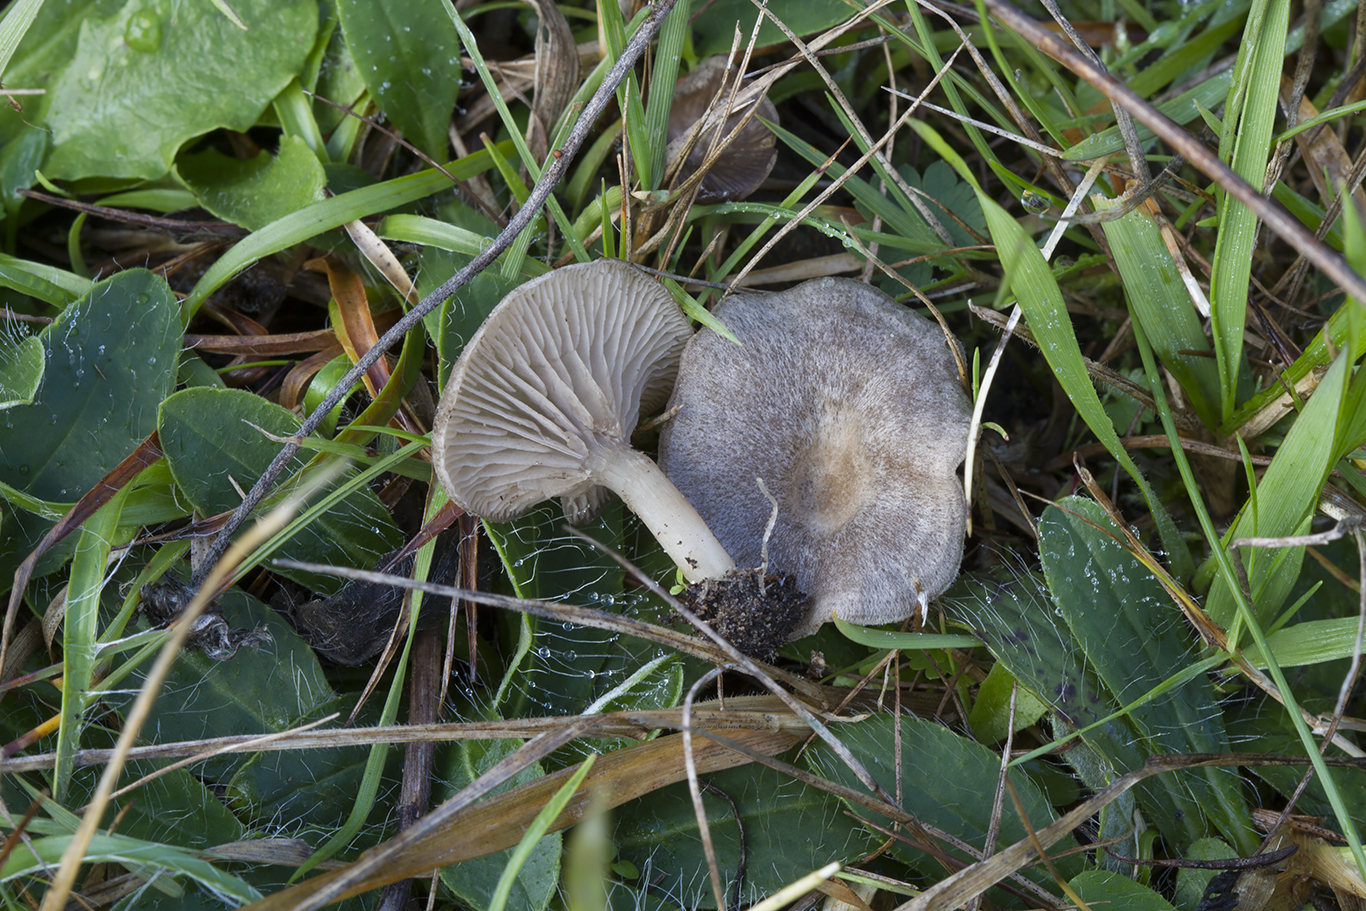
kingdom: Fungi
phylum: Basidiomycota
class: Agaricomycetes
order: Agaricales
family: Entolomataceae
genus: Entoloma
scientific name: Entoloma undatum
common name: bæltet rødblad
